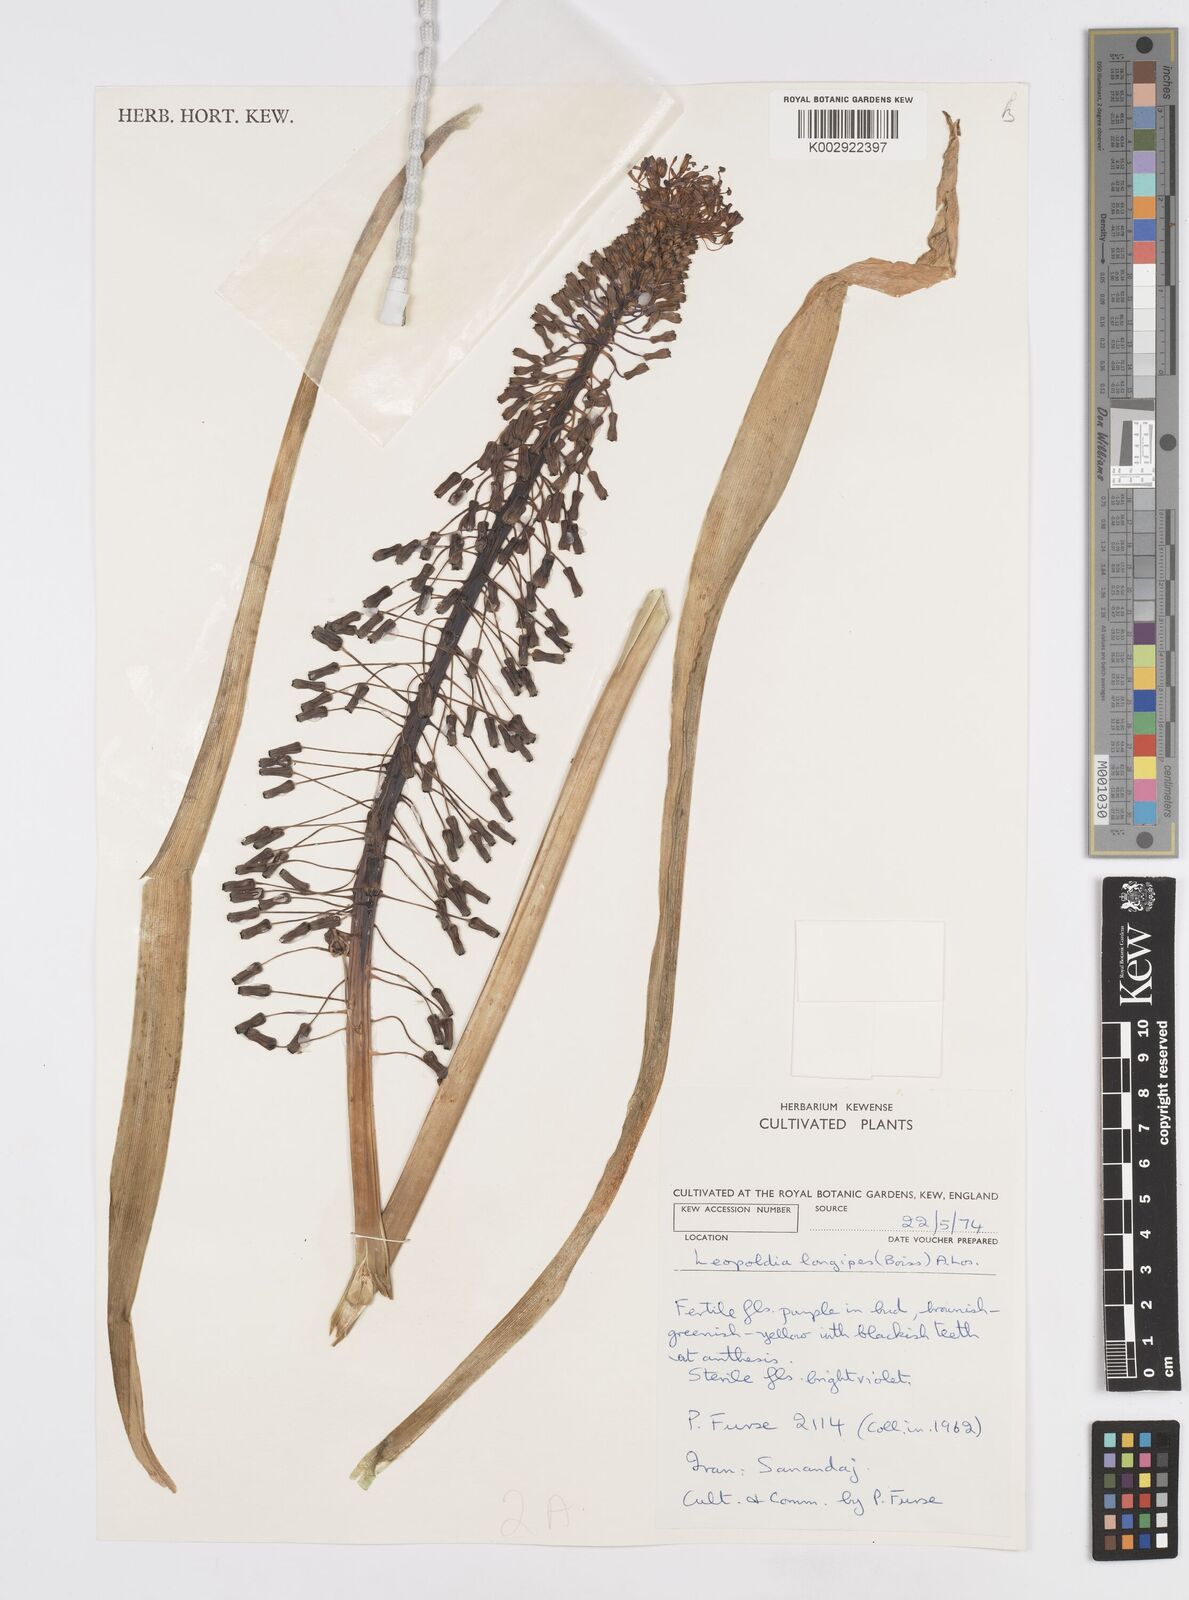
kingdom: Plantae
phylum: Tracheophyta
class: Liliopsida
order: Asparagales
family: Asparagaceae
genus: Muscari
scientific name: Muscari longipes
